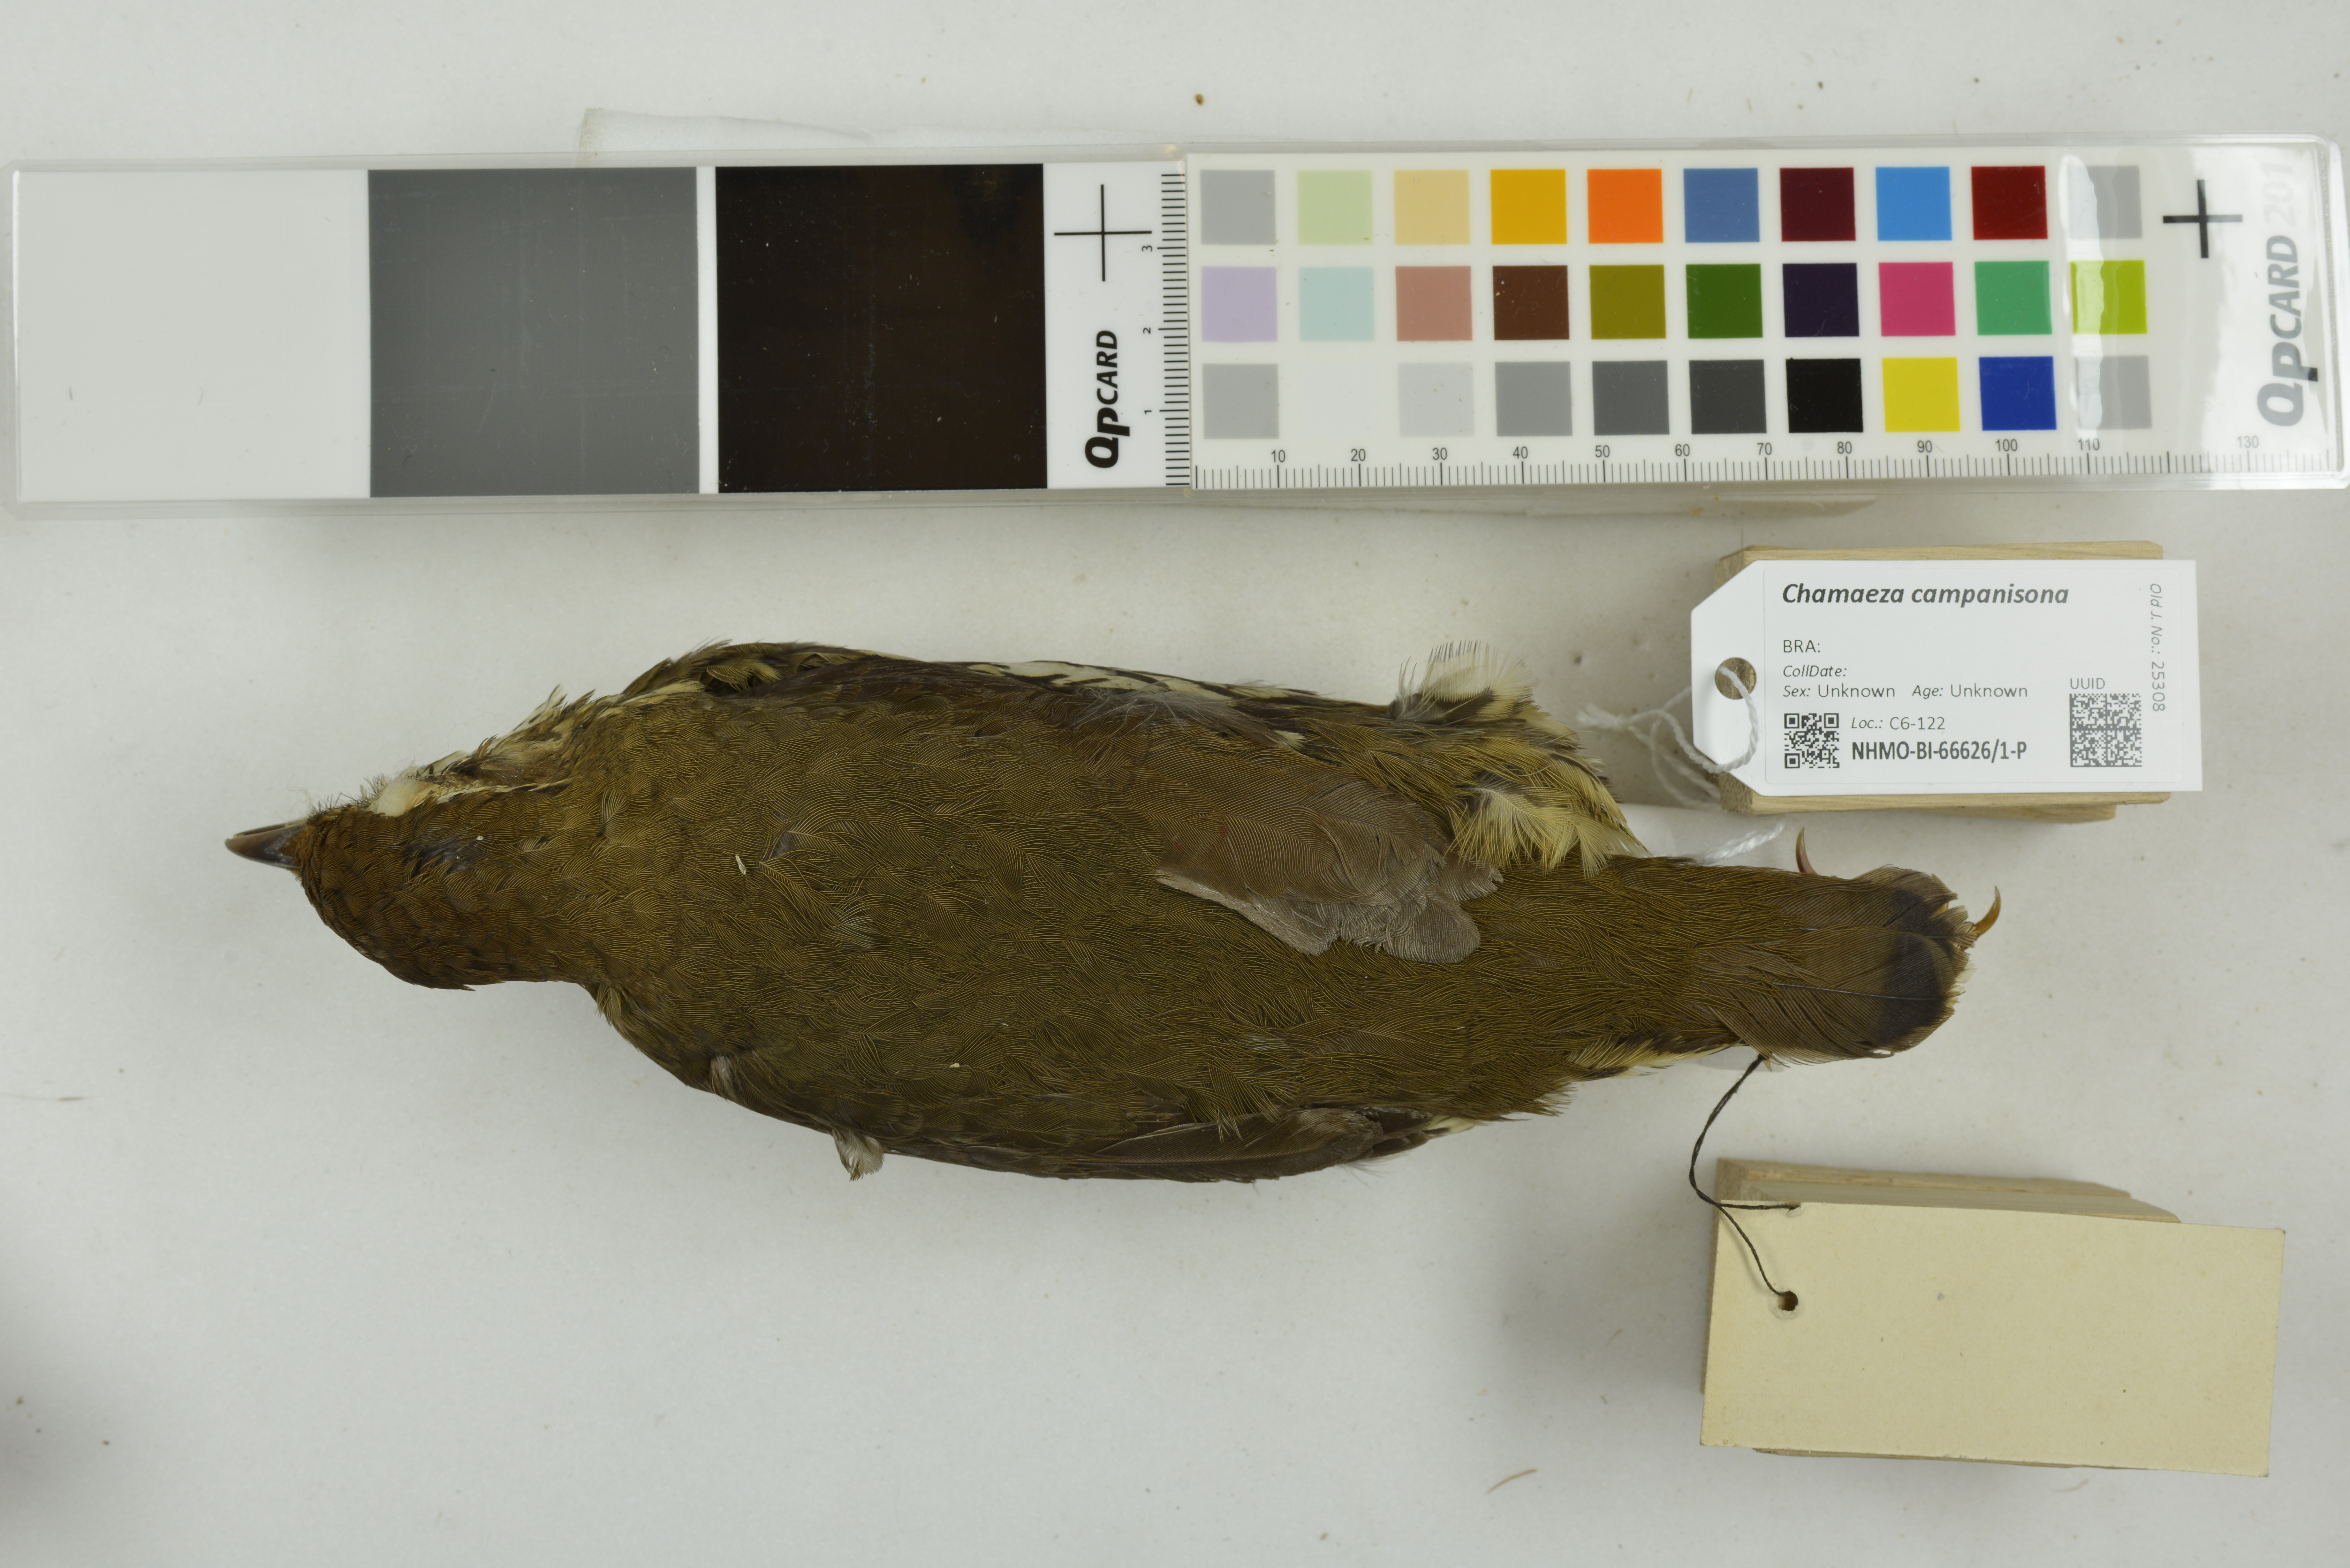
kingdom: Animalia
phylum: Chordata
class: Aves
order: Passeriformes
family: Formicariidae
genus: Chamaeza
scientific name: Chamaeza campanisona
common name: Short-tailed antthrush
